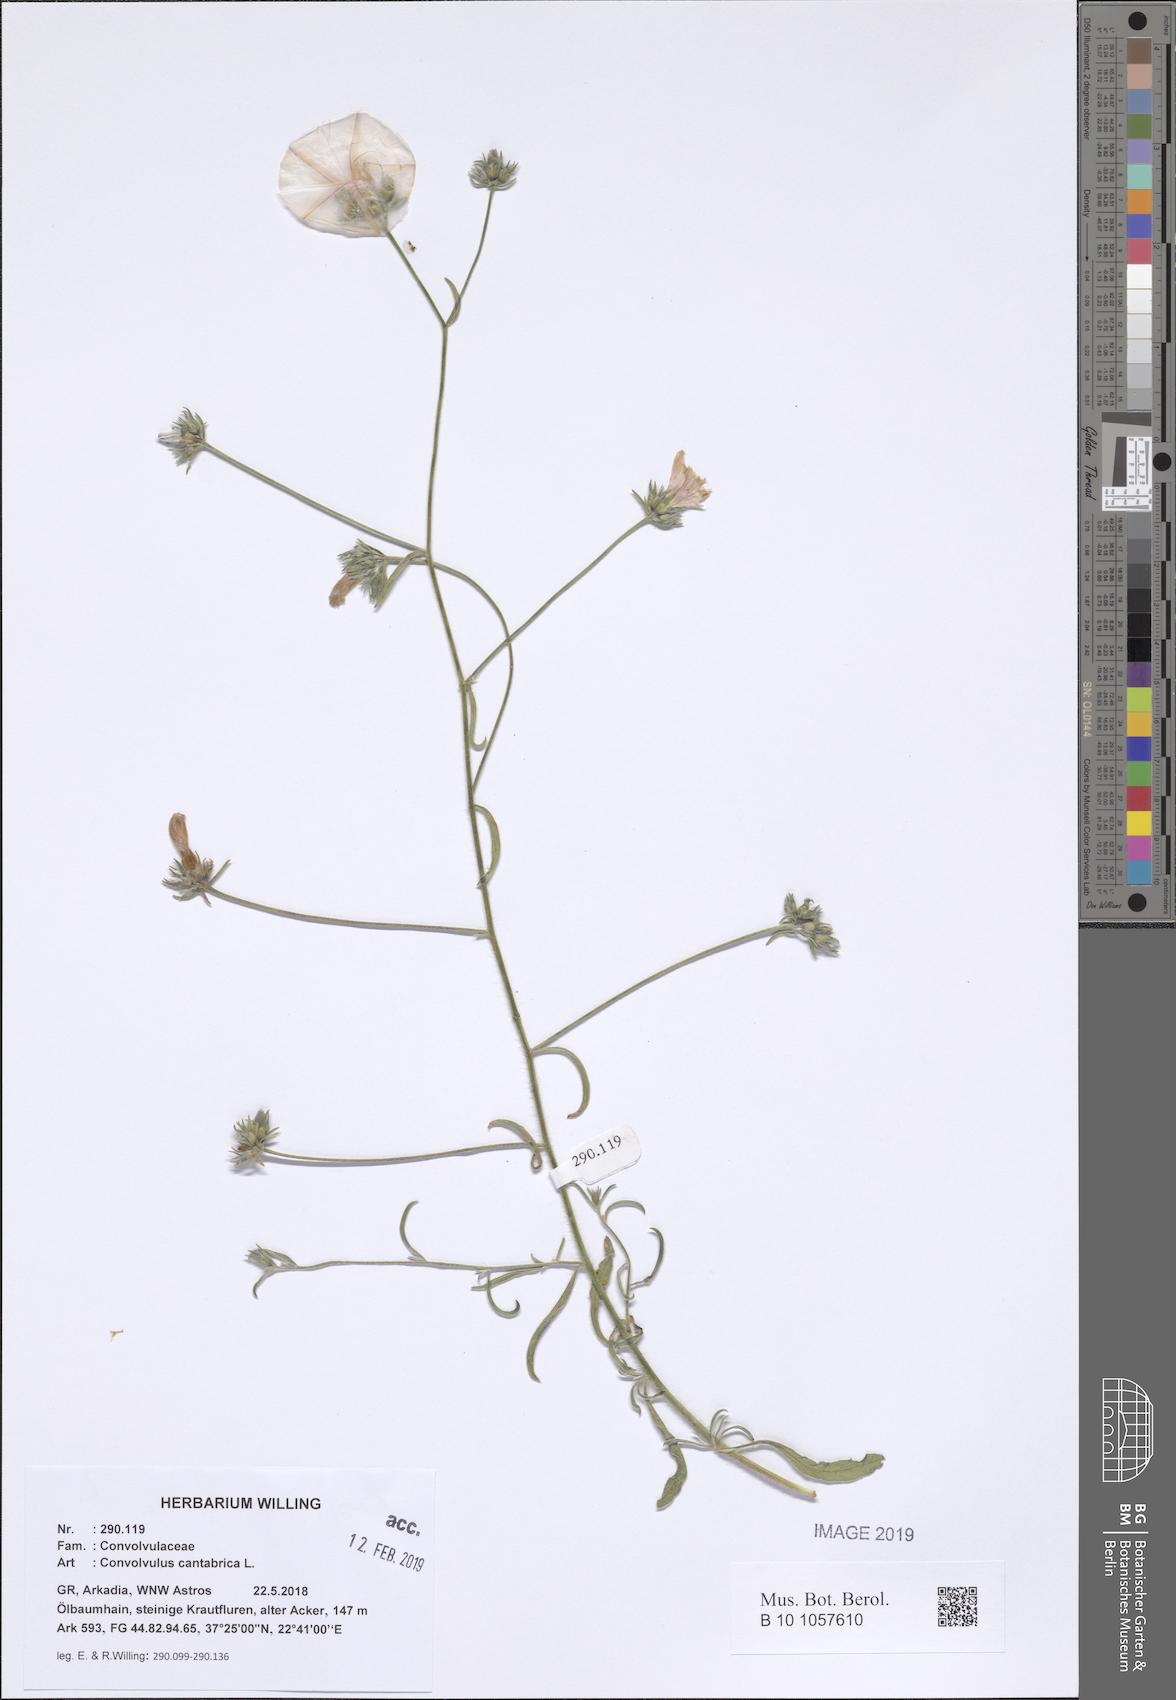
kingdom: Plantae
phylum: Tracheophyta
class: Magnoliopsida
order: Solanales
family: Convolvulaceae
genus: Convolvulus
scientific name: Convolvulus cantabrica
